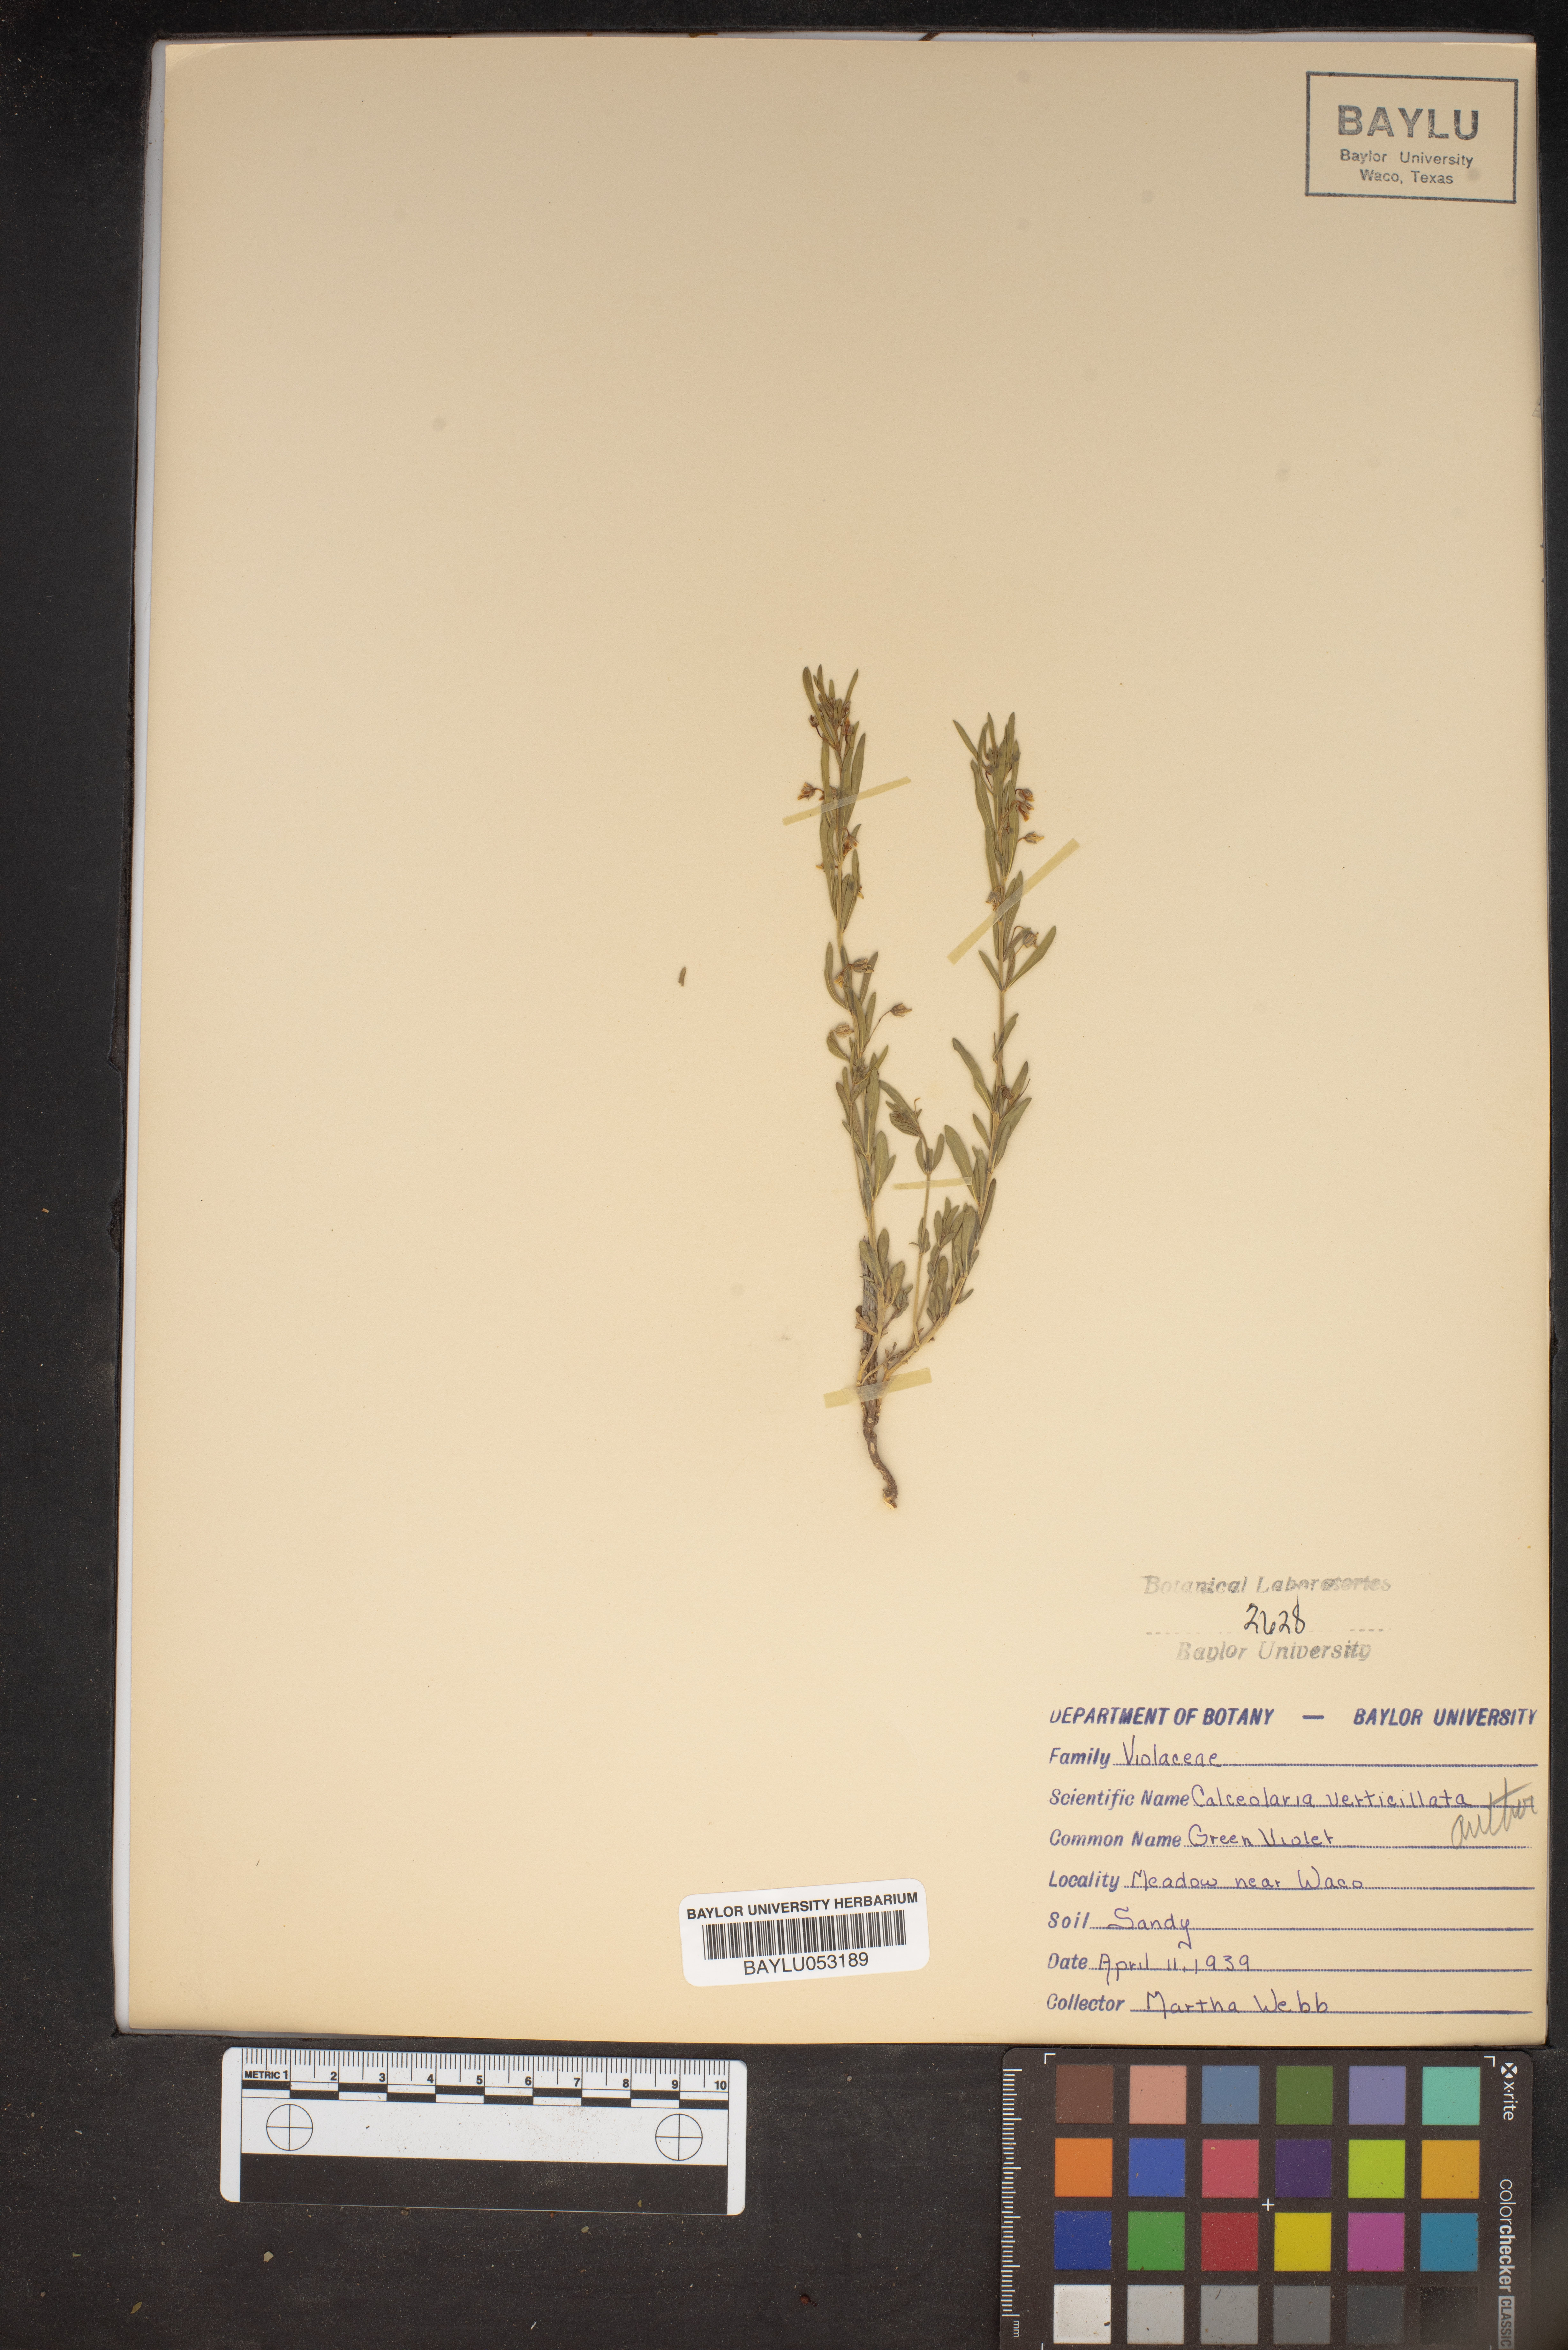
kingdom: Plantae
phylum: Tracheophyta
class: Magnoliopsida
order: Malpighiales
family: Violaceae
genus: Pombalia
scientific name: Pombalia verticillata
